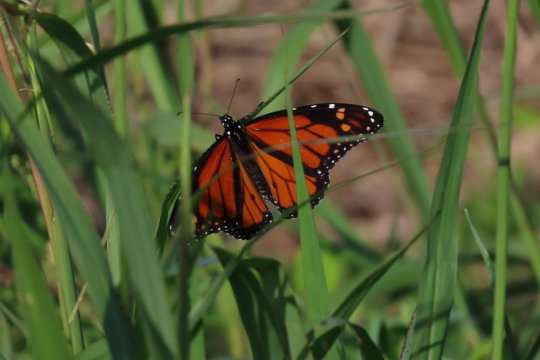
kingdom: Animalia
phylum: Arthropoda
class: Insecta
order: Lepidoptera
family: Nymphalidae
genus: Danaus
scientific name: Danaus plexippus
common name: Monarch
